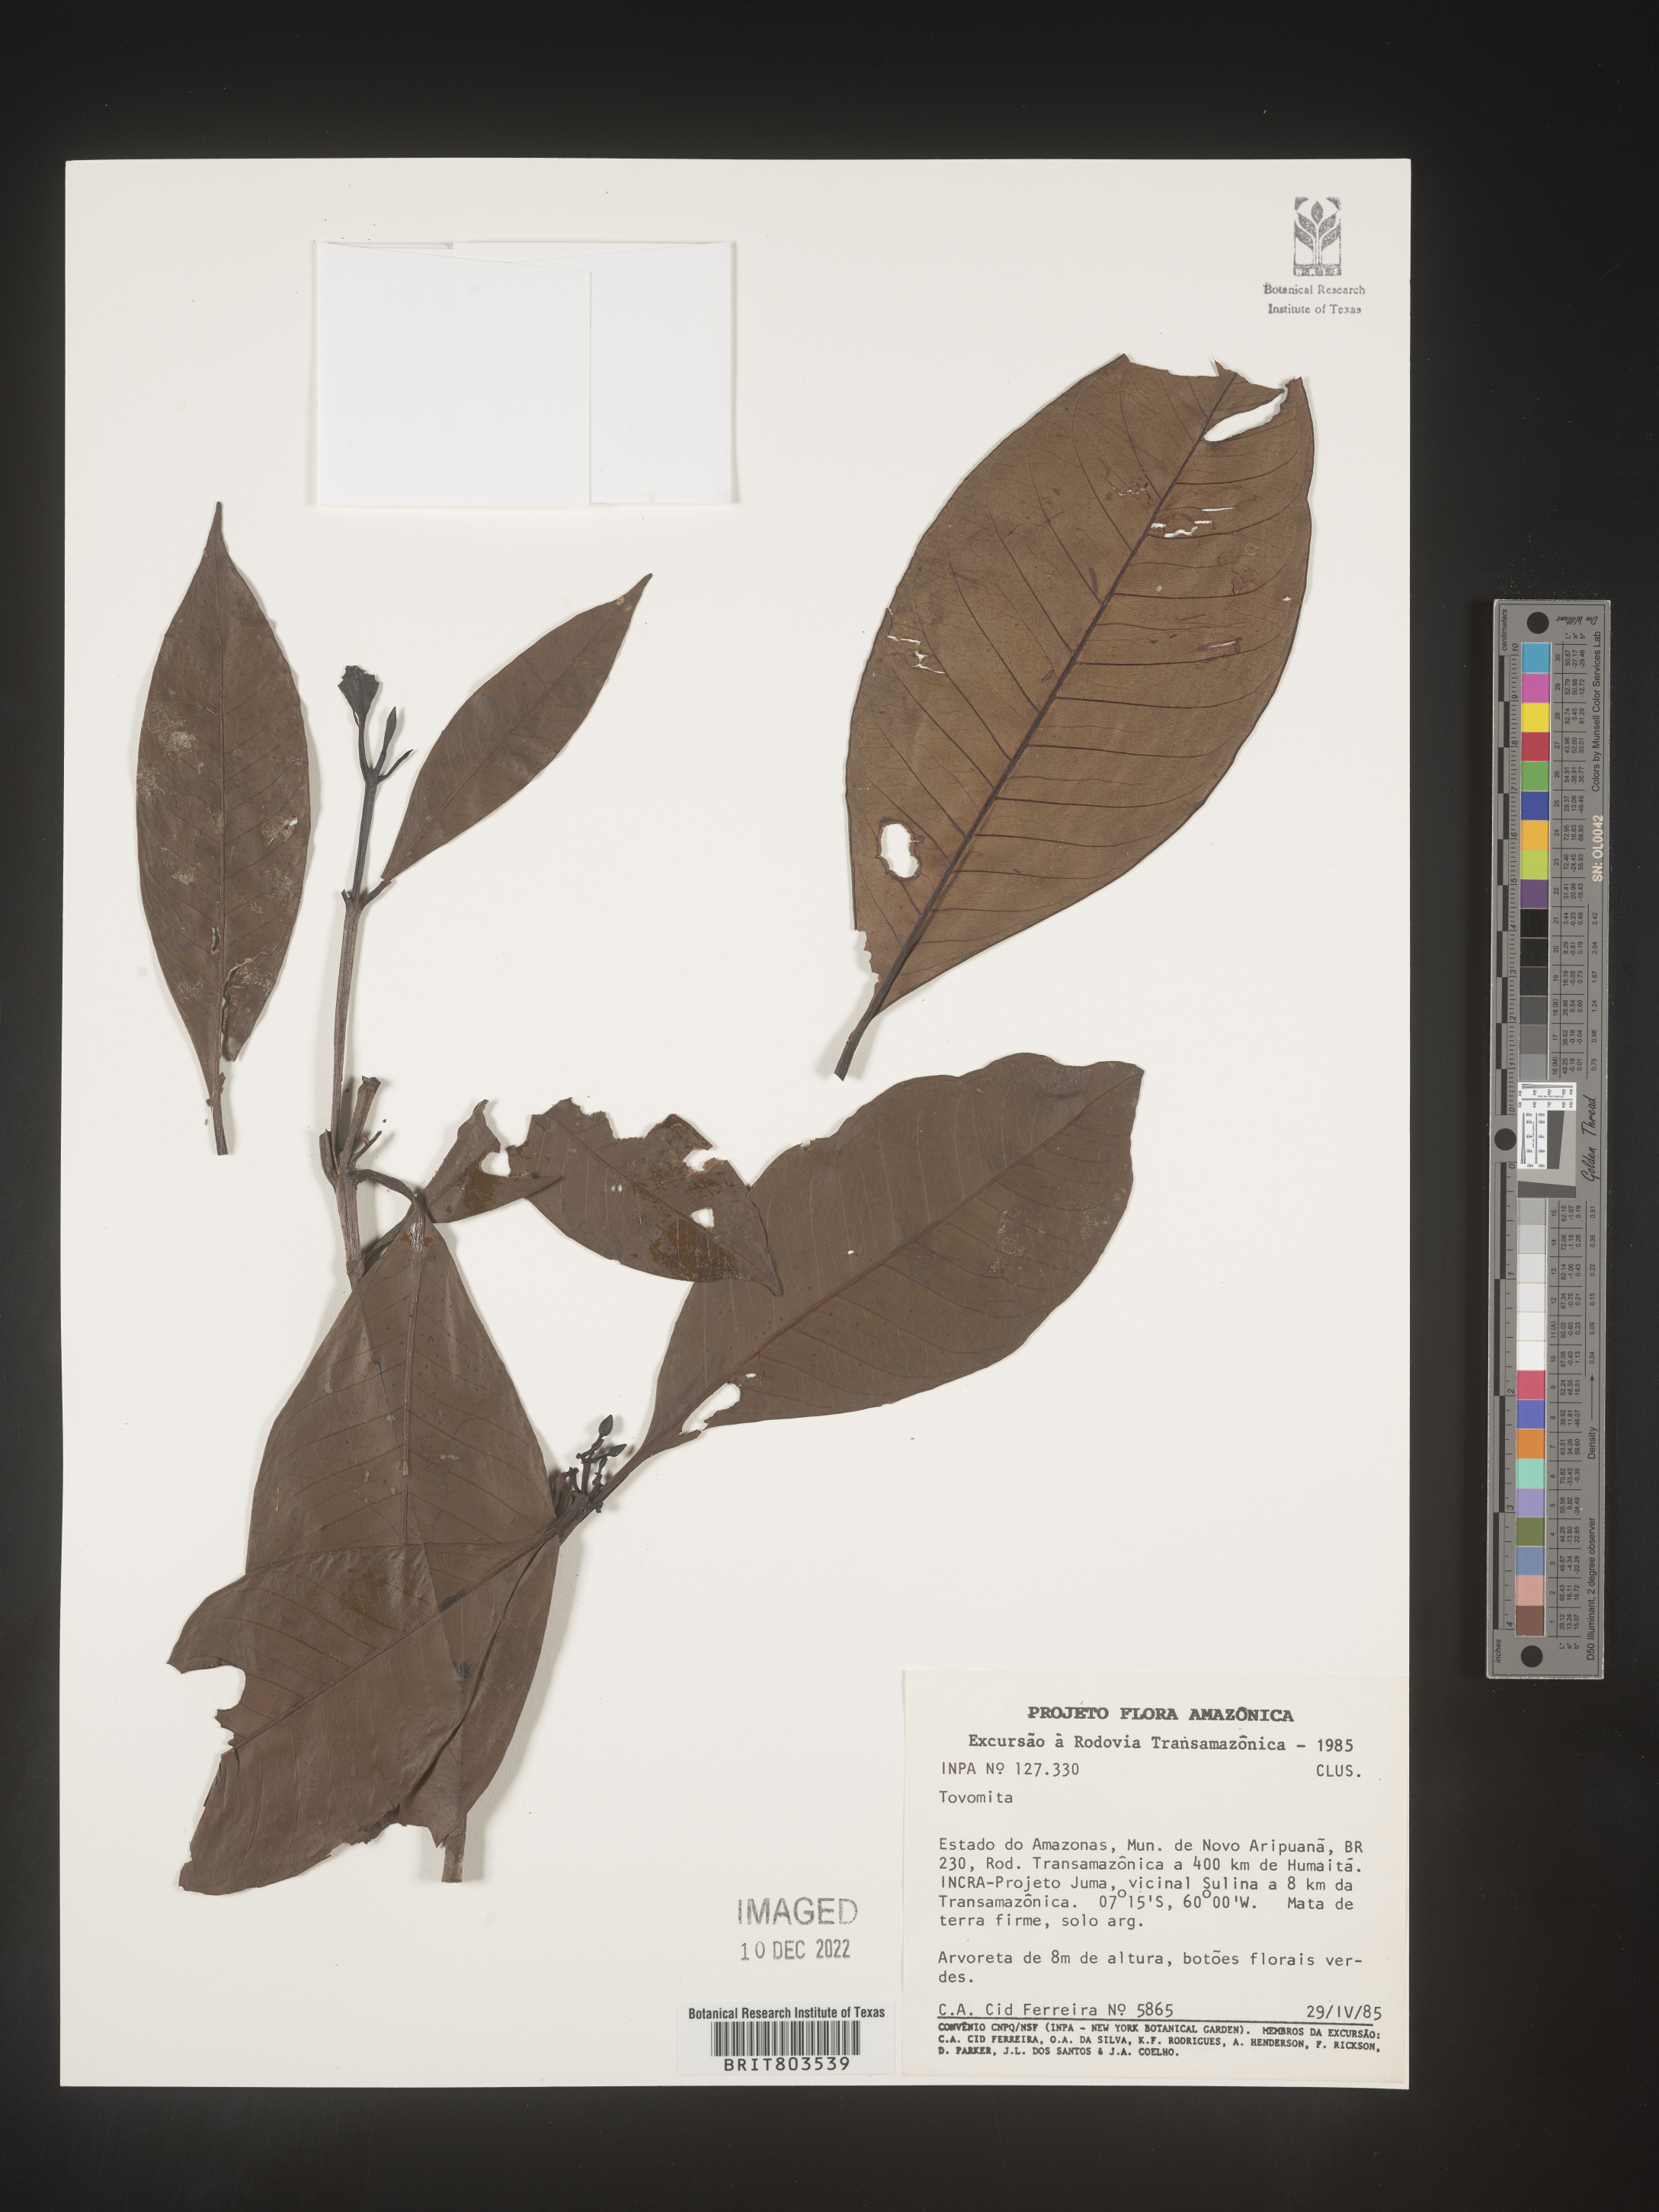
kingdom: Plantae
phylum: Tracheophyta
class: Magnoliopsida
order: Malpighiales
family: Clusiaceae
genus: Tovomita
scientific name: Tovomita
